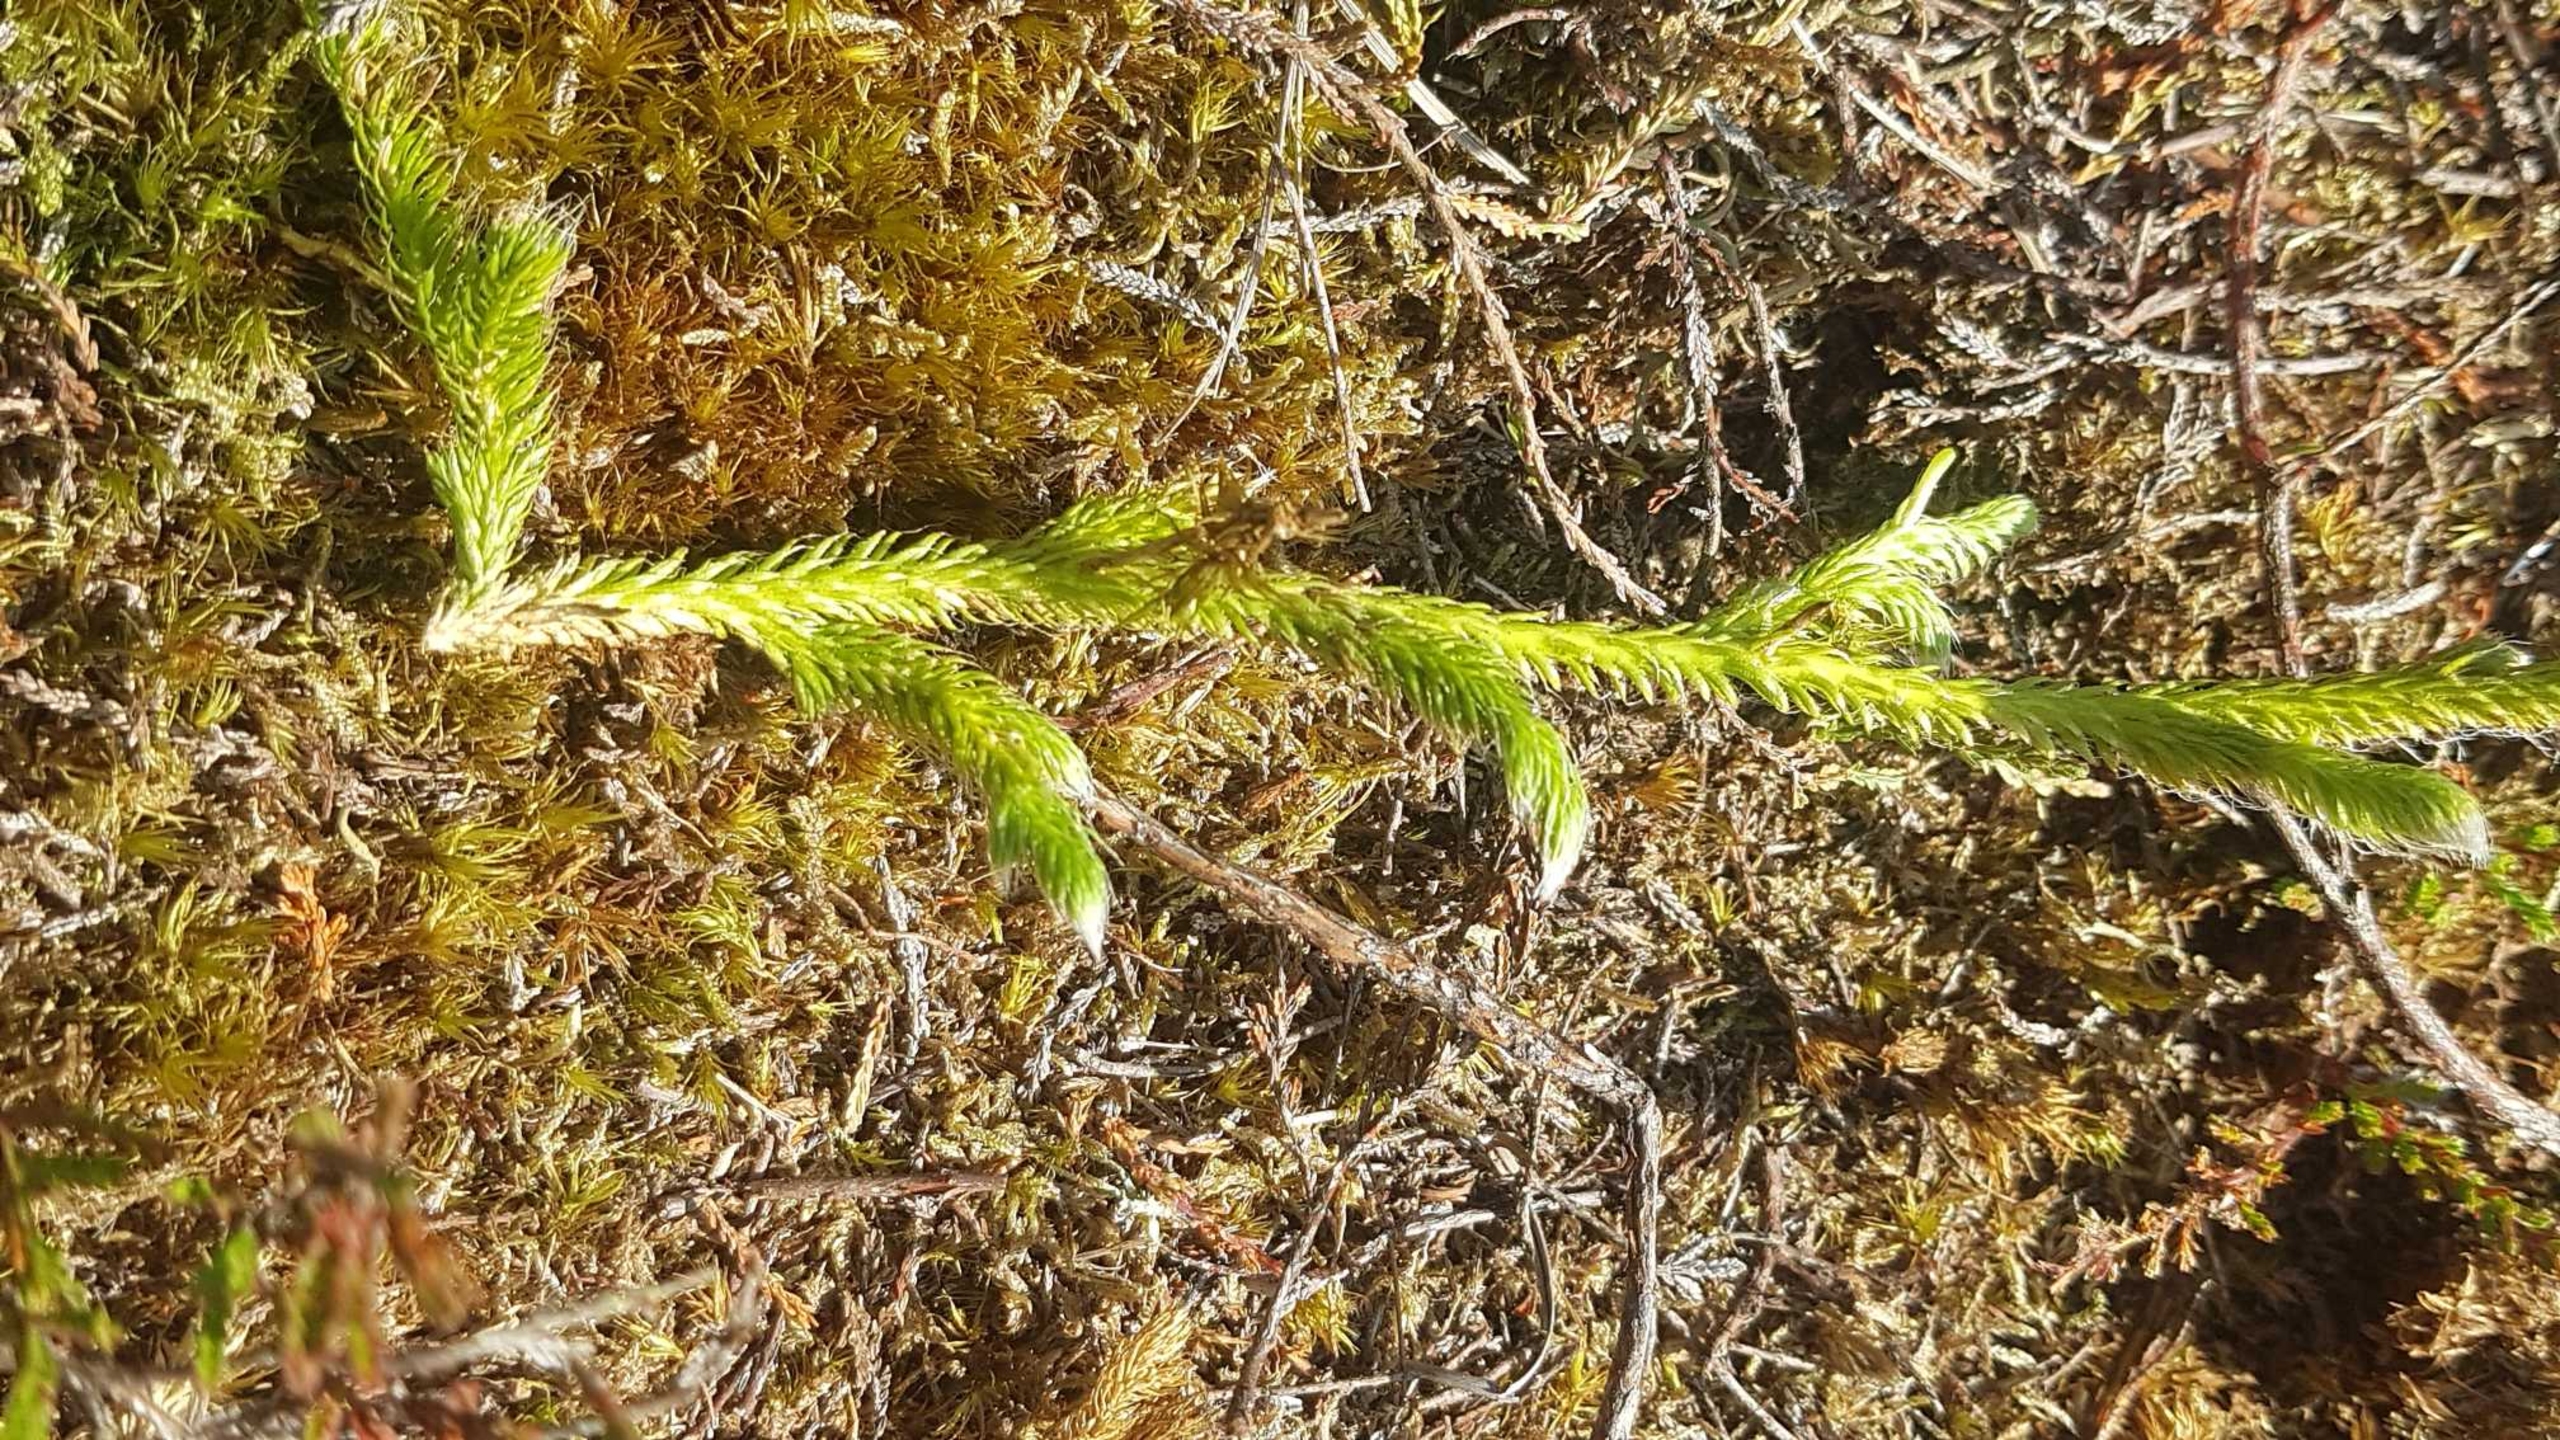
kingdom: Plantae
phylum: Tracheophyta
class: Lycopodiopsida
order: Lycopodiales
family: Lycopodiaceae
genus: Lycopodium
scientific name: Lycopodium clavatum
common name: Almindelig ulvefod
